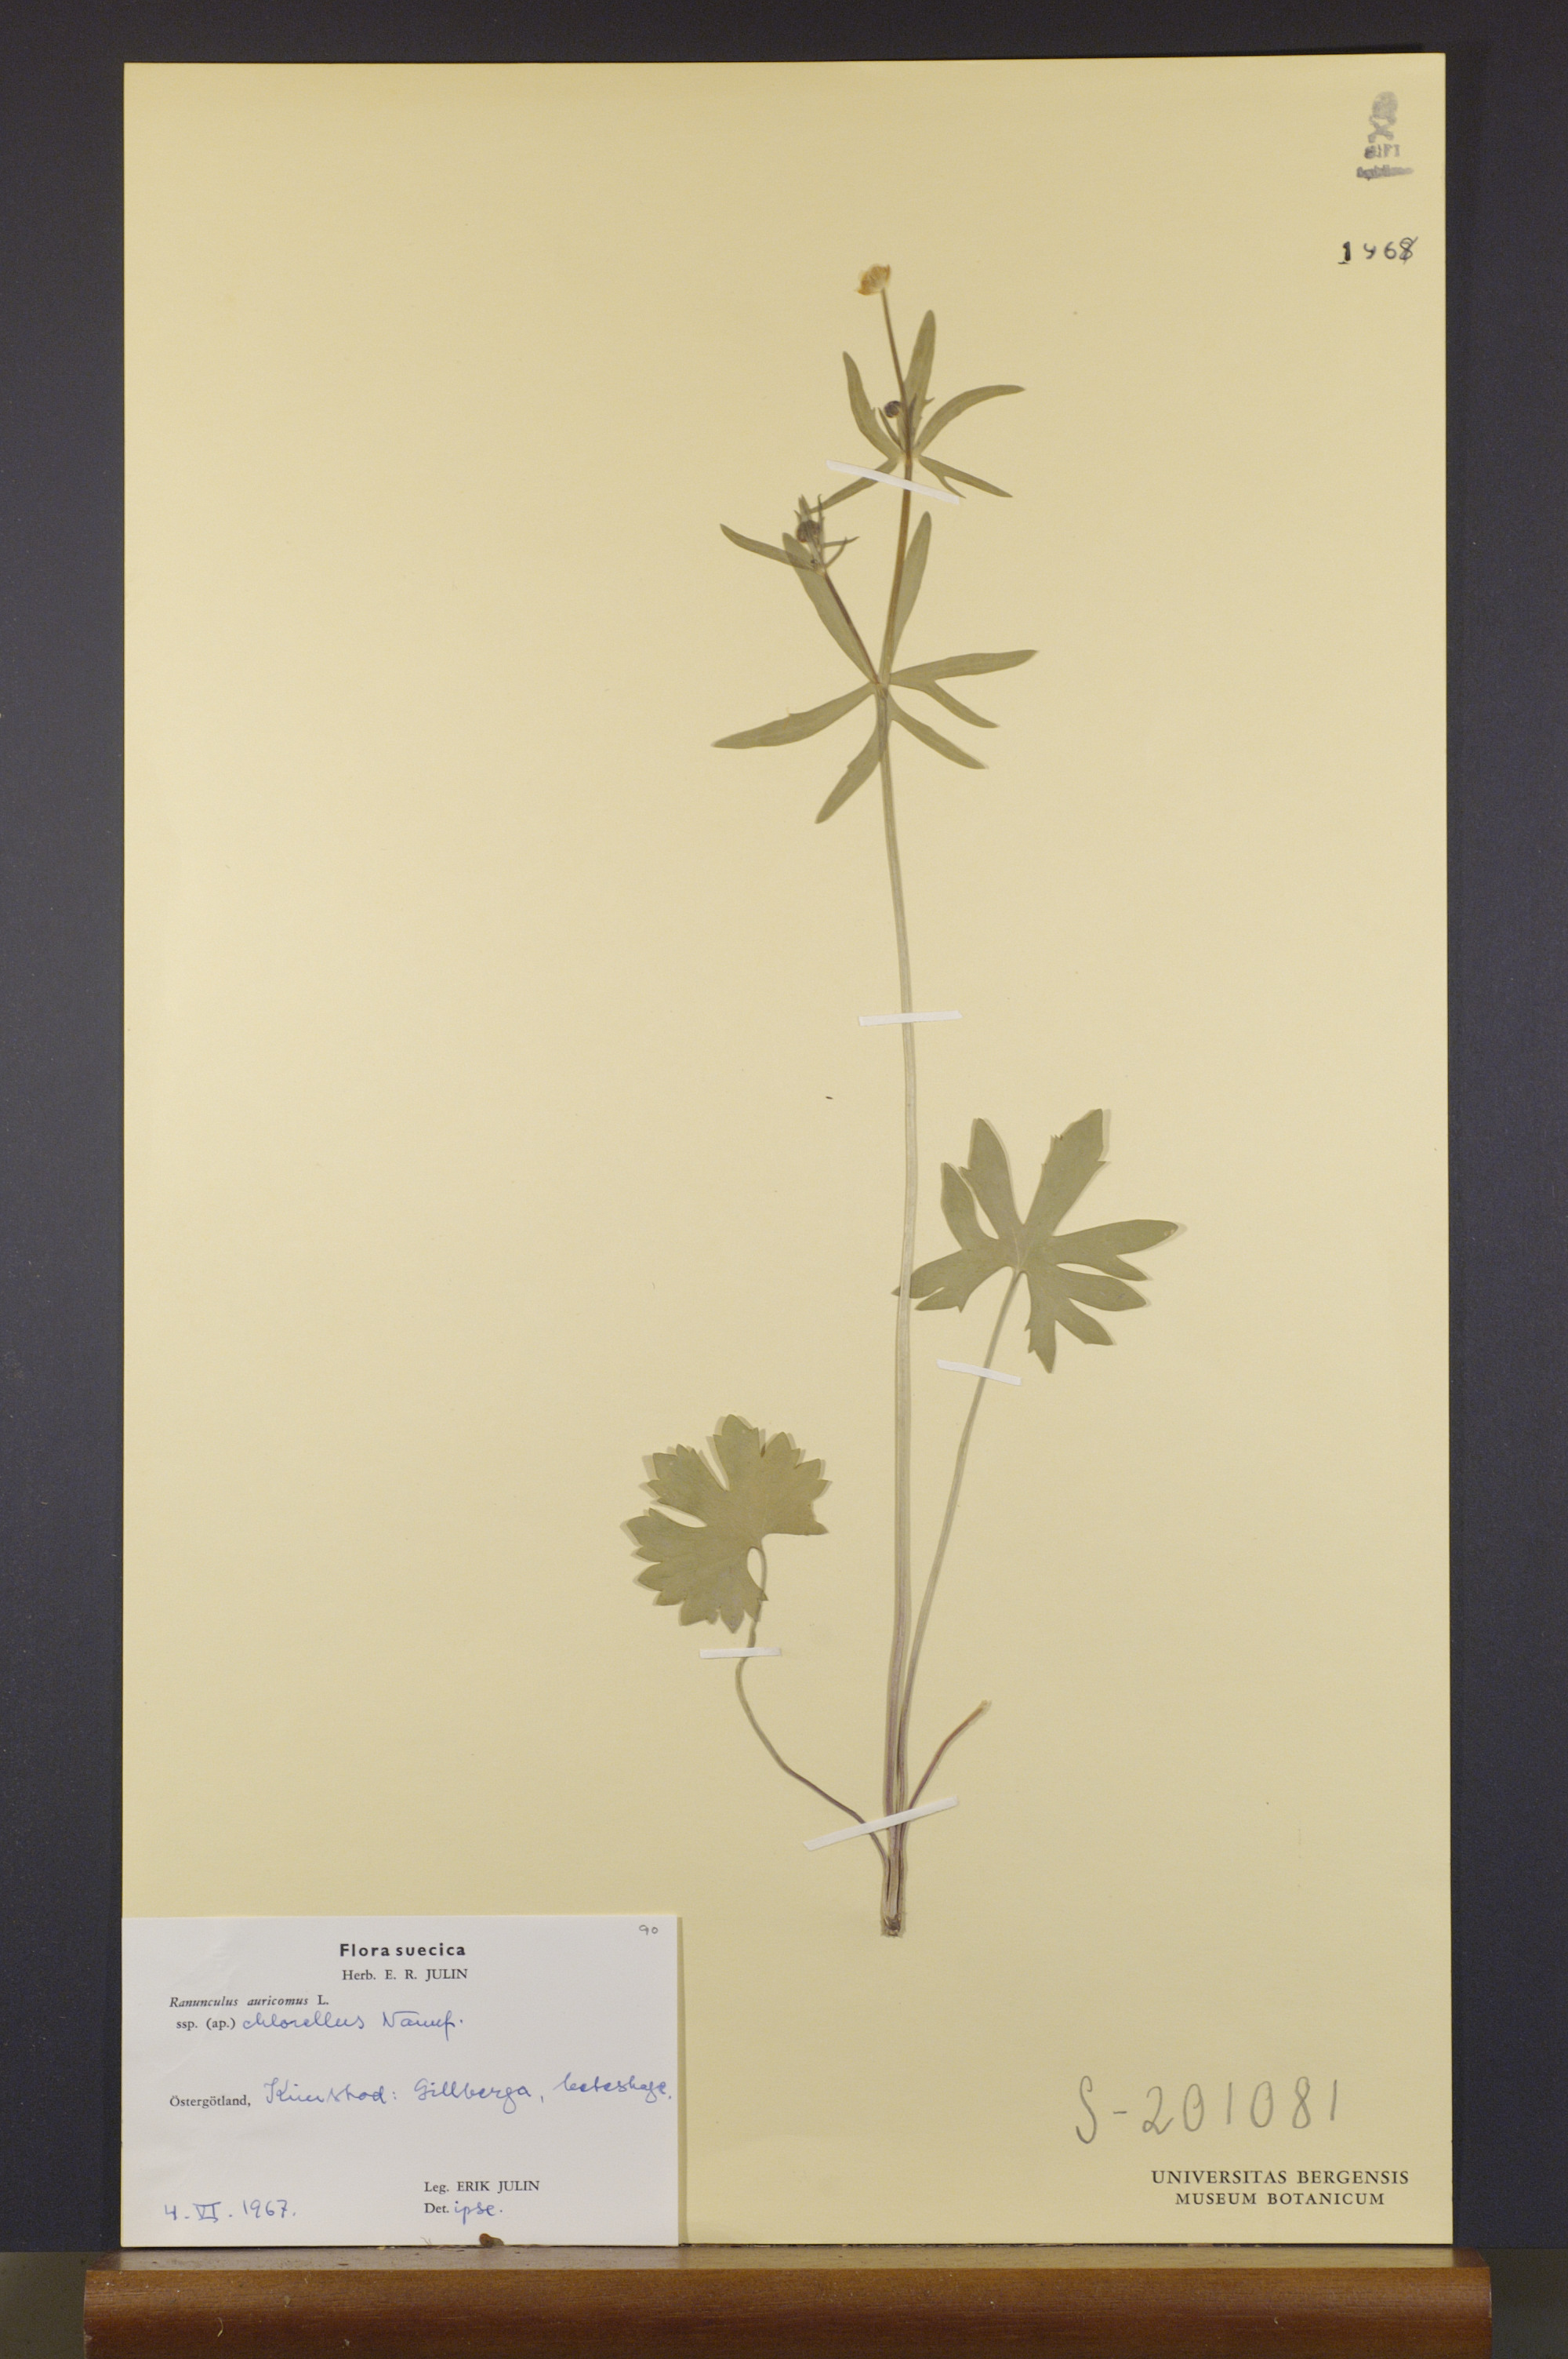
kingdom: Plantae
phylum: Tracheophyta
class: Magnoliopsida
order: Ranunculales
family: Ranunculaceae
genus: Ranunculus
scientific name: Ranunculus chlorellus
